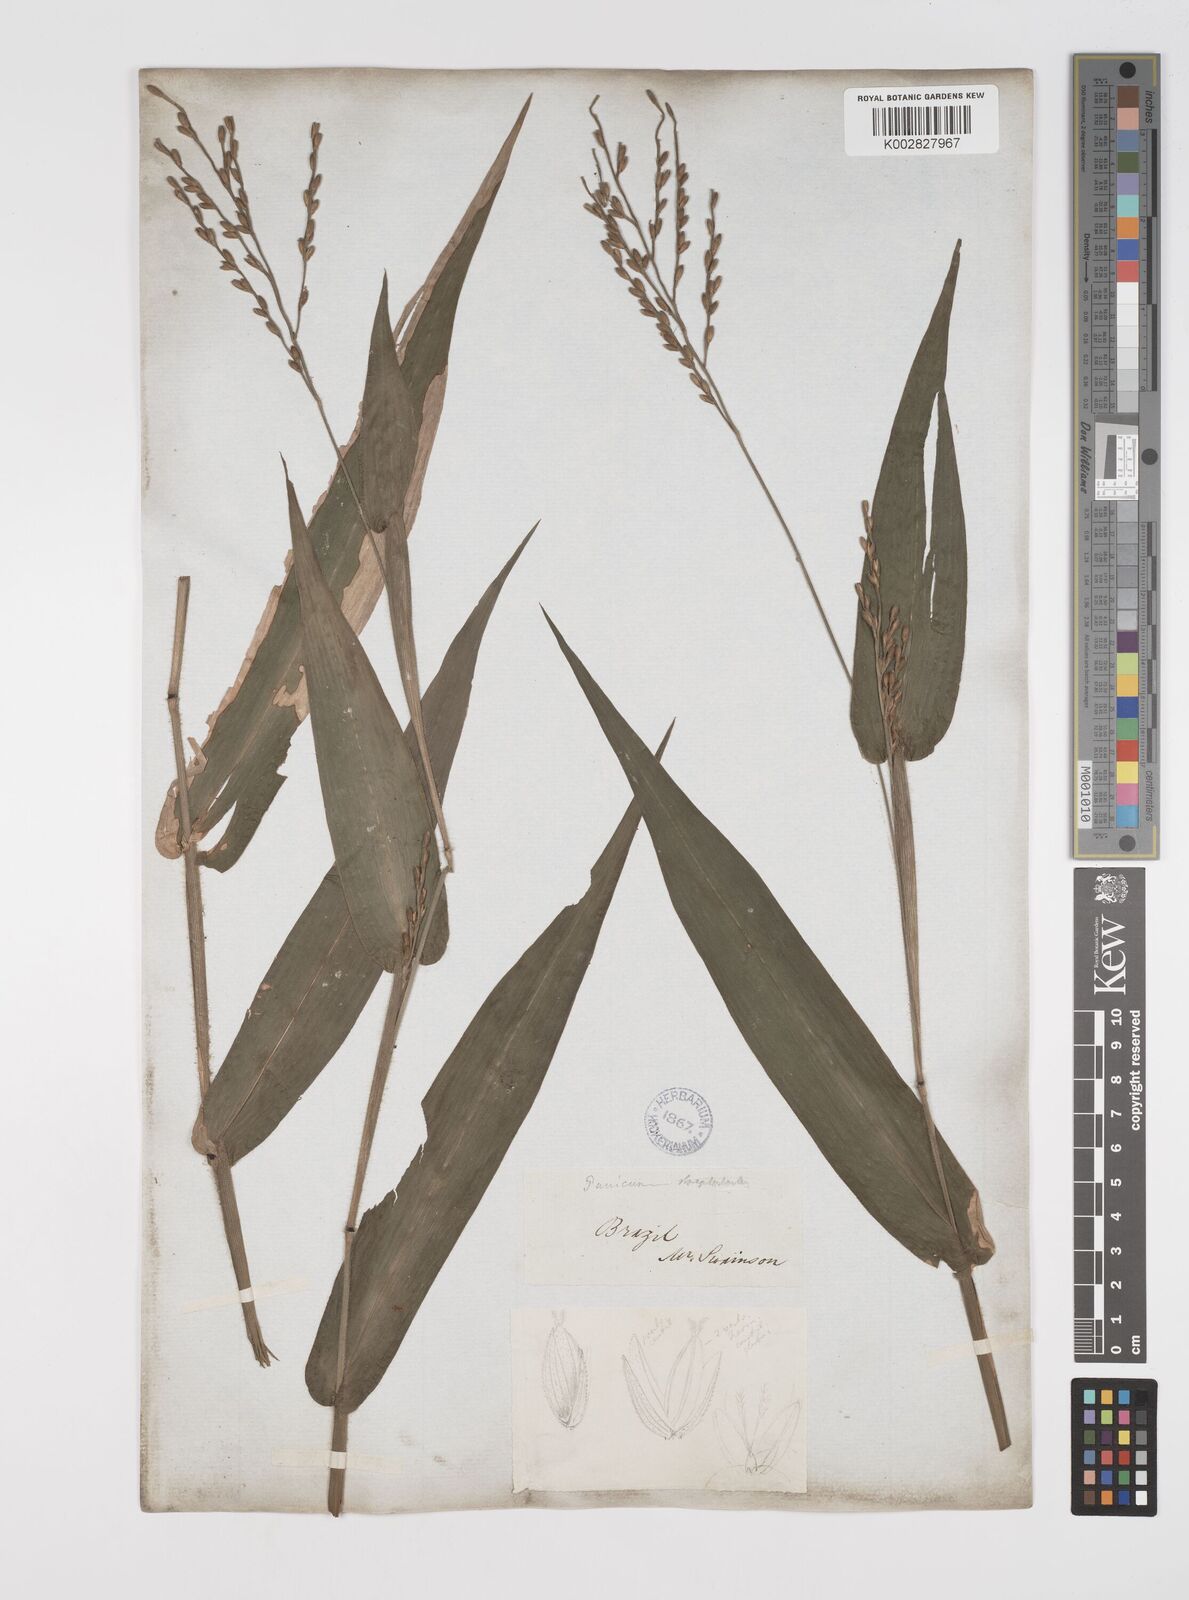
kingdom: Plantae
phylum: Tracheophyta
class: Liliopsida
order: Poales
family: Poaceae
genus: Streptostachys
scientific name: Streptostachys asperifolia
